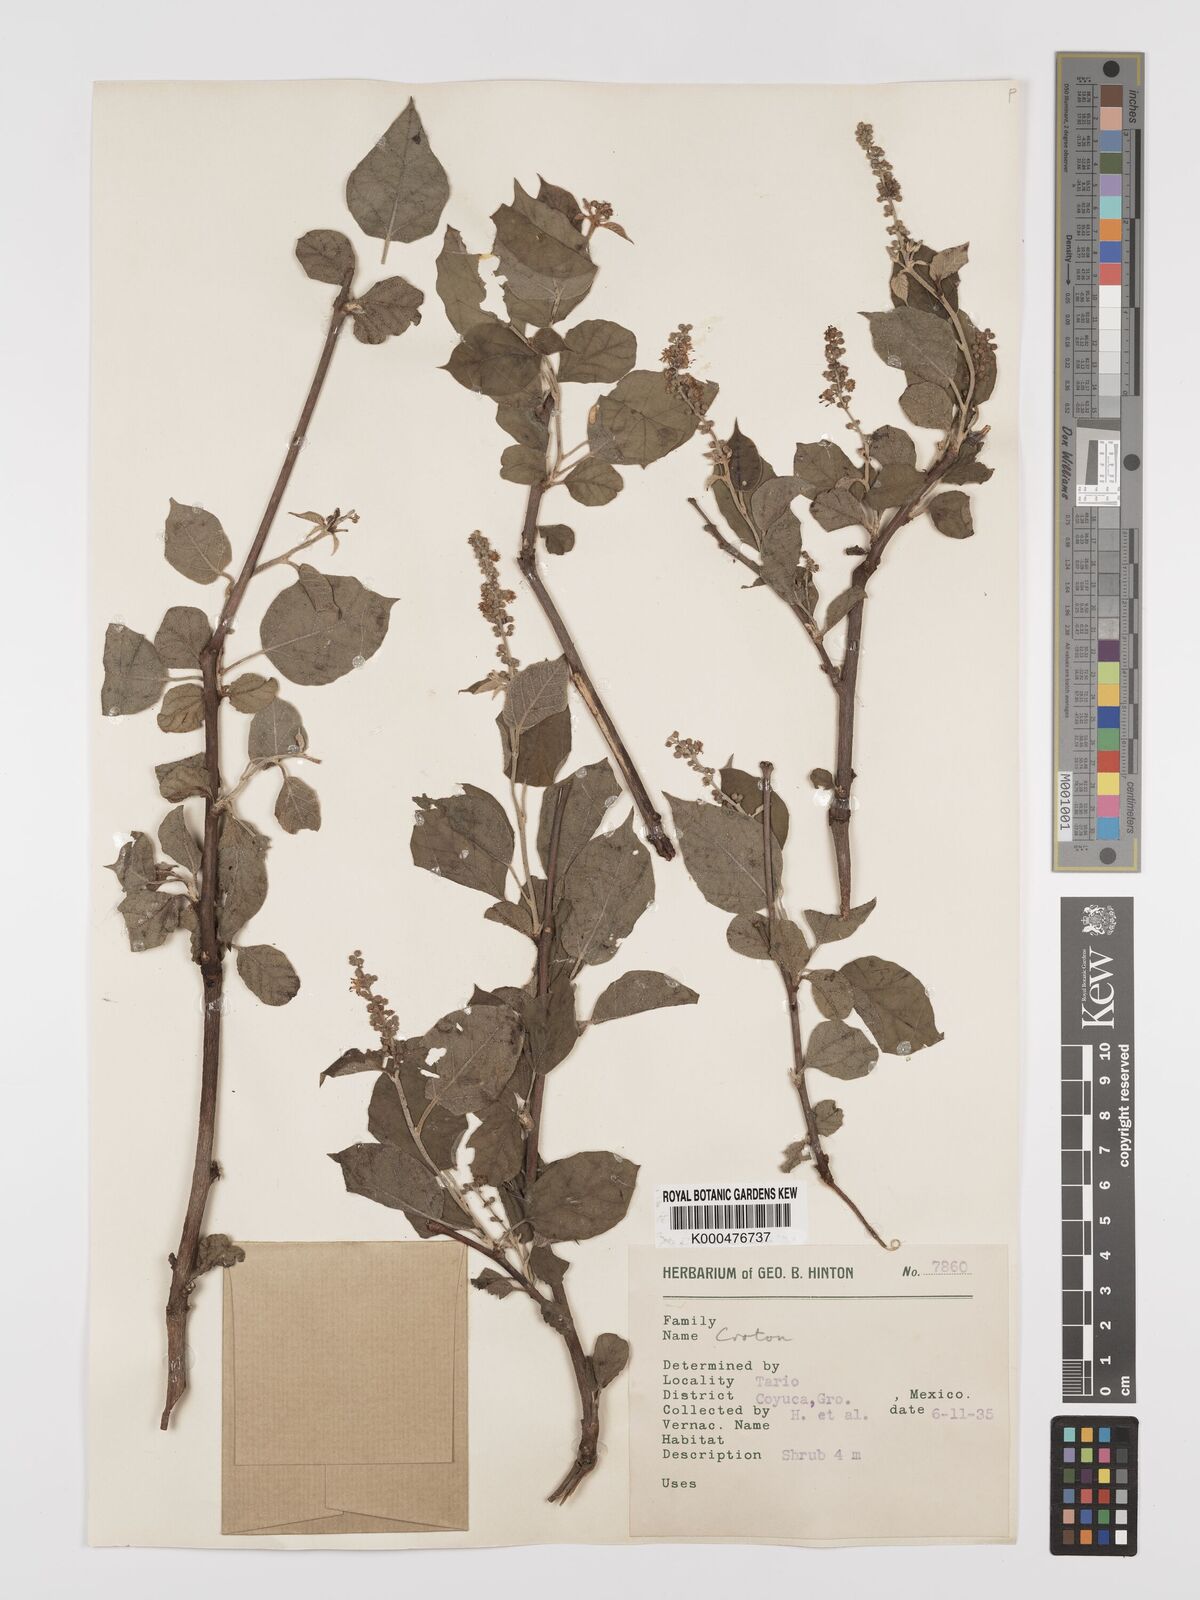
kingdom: Plantae
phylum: Tracheophyta
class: Magnoliopsida
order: Malpighiales
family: Euphorbiaceae
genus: Croton
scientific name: Croton
